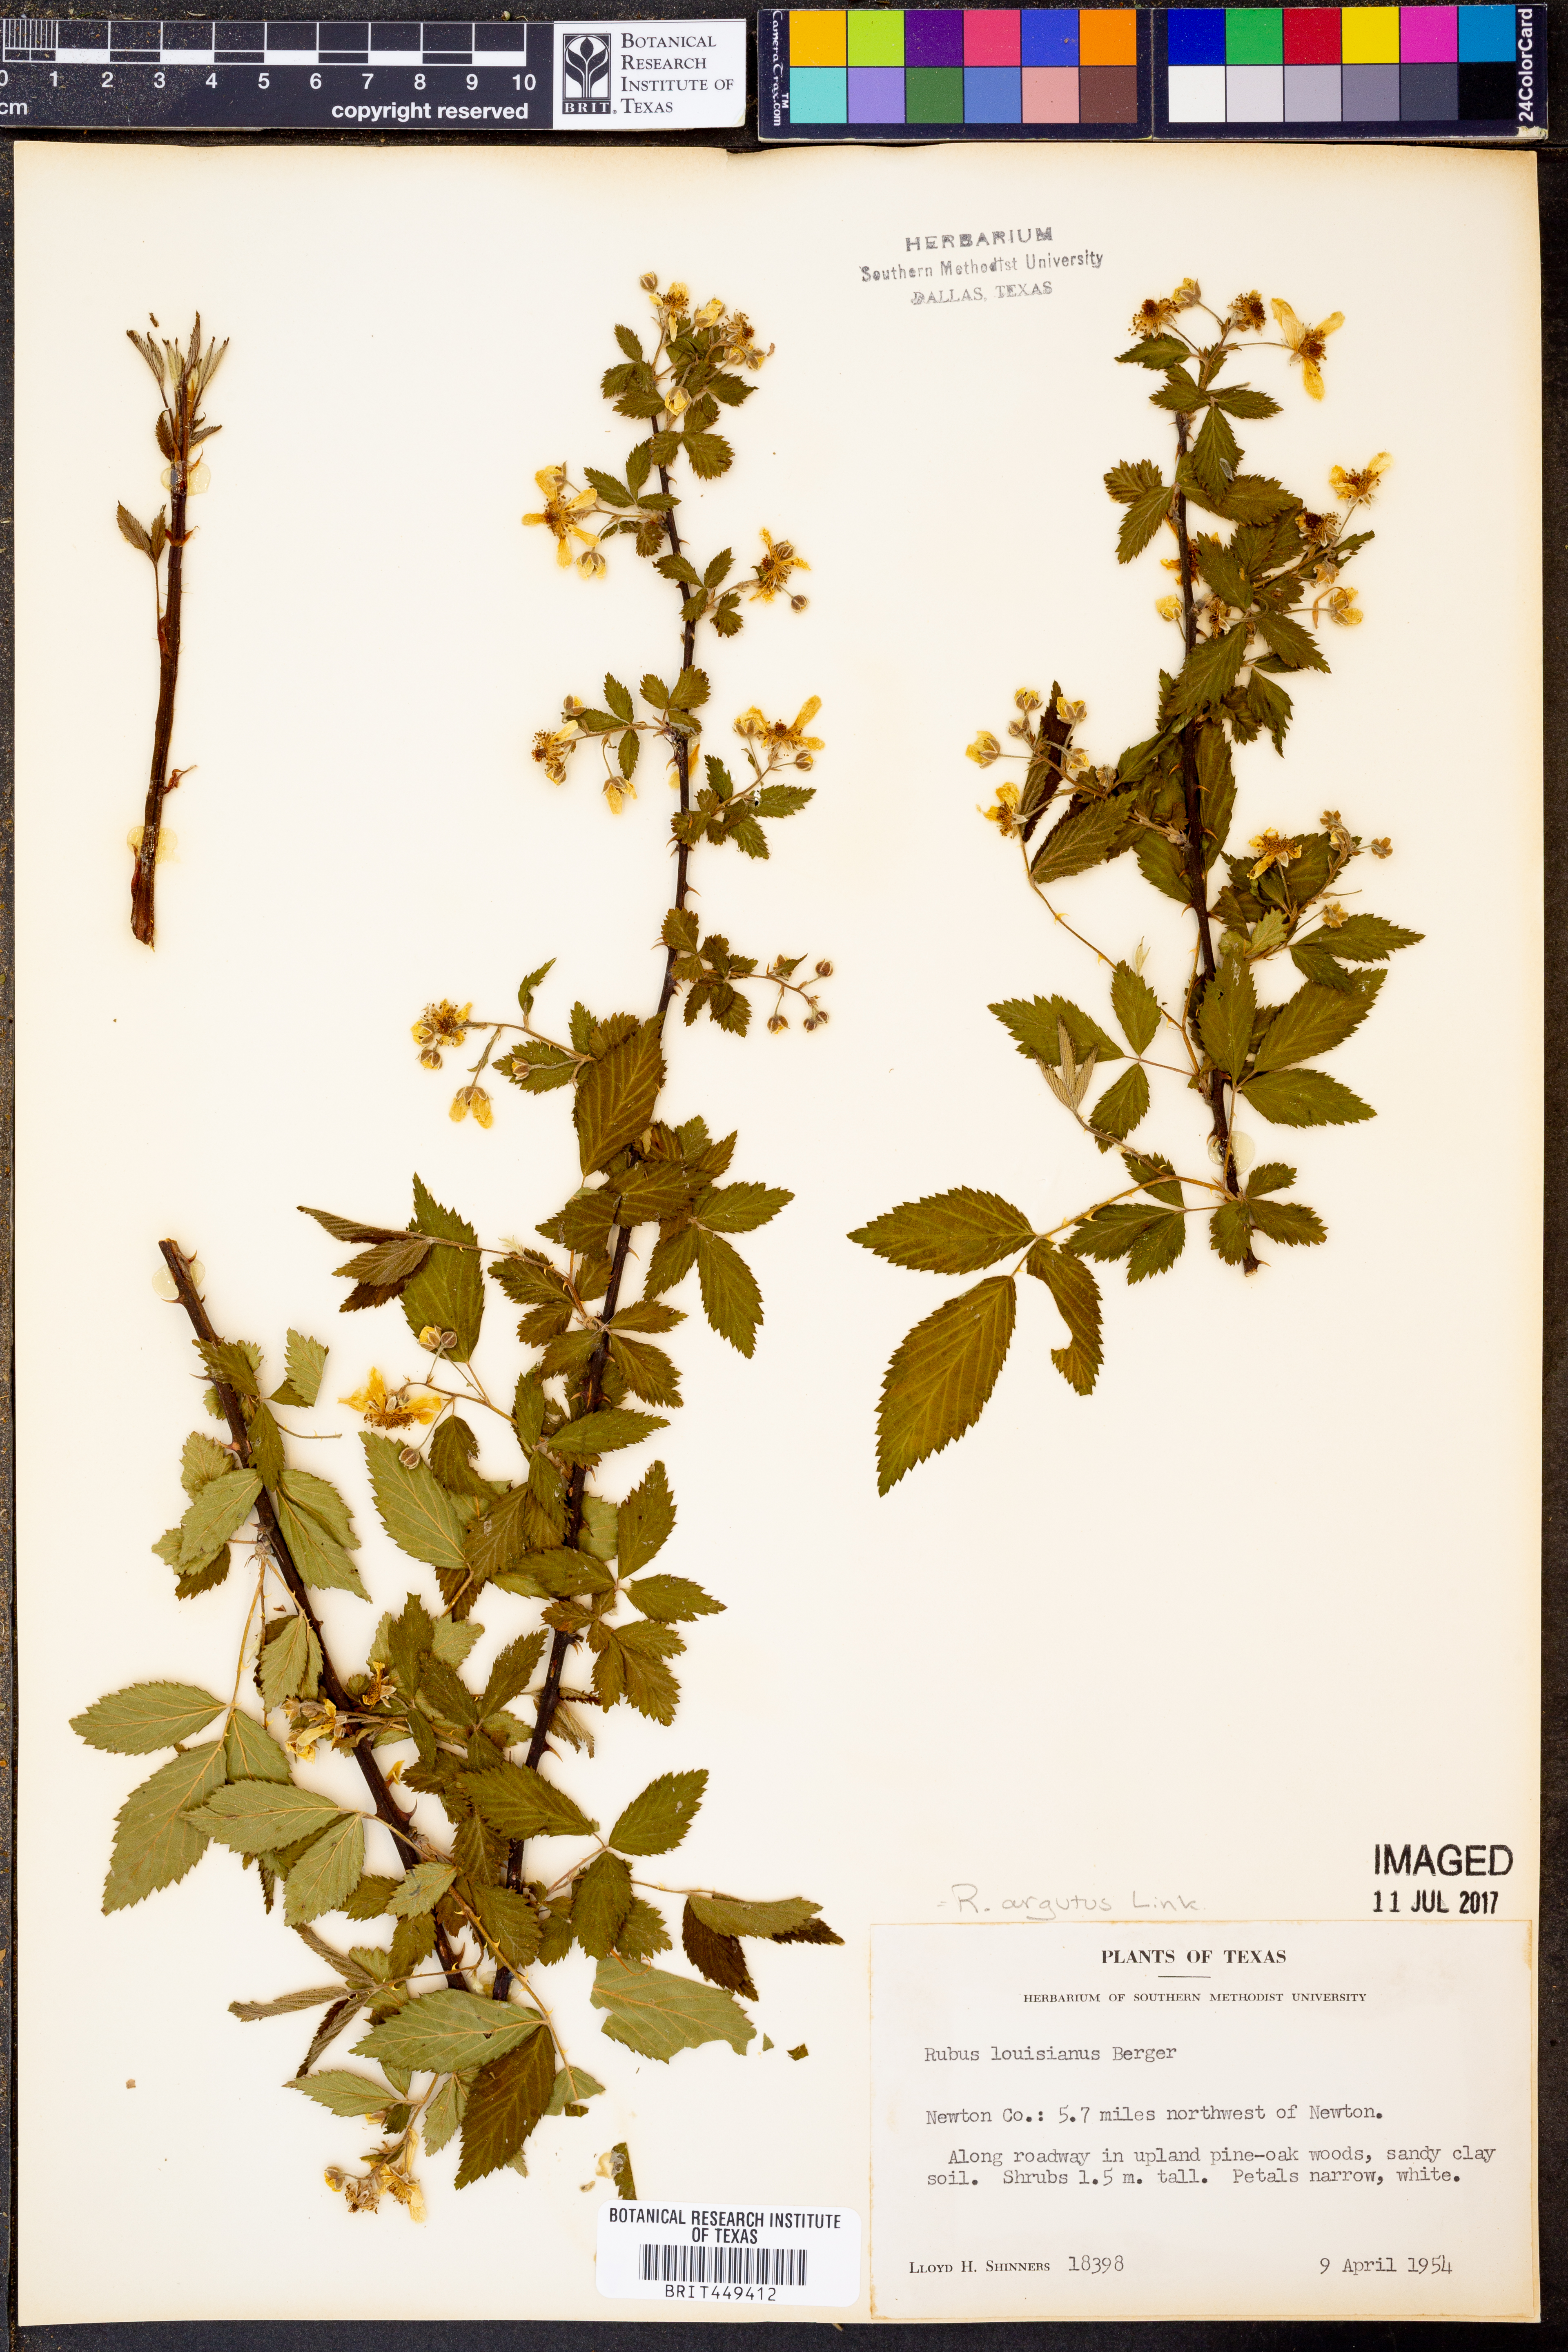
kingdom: Plantae
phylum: Tracheophyta
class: Magnoliopsida
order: Rosales
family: Rosaceae
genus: Rubus
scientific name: Rubus argutus
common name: Sawtooth blackberry
